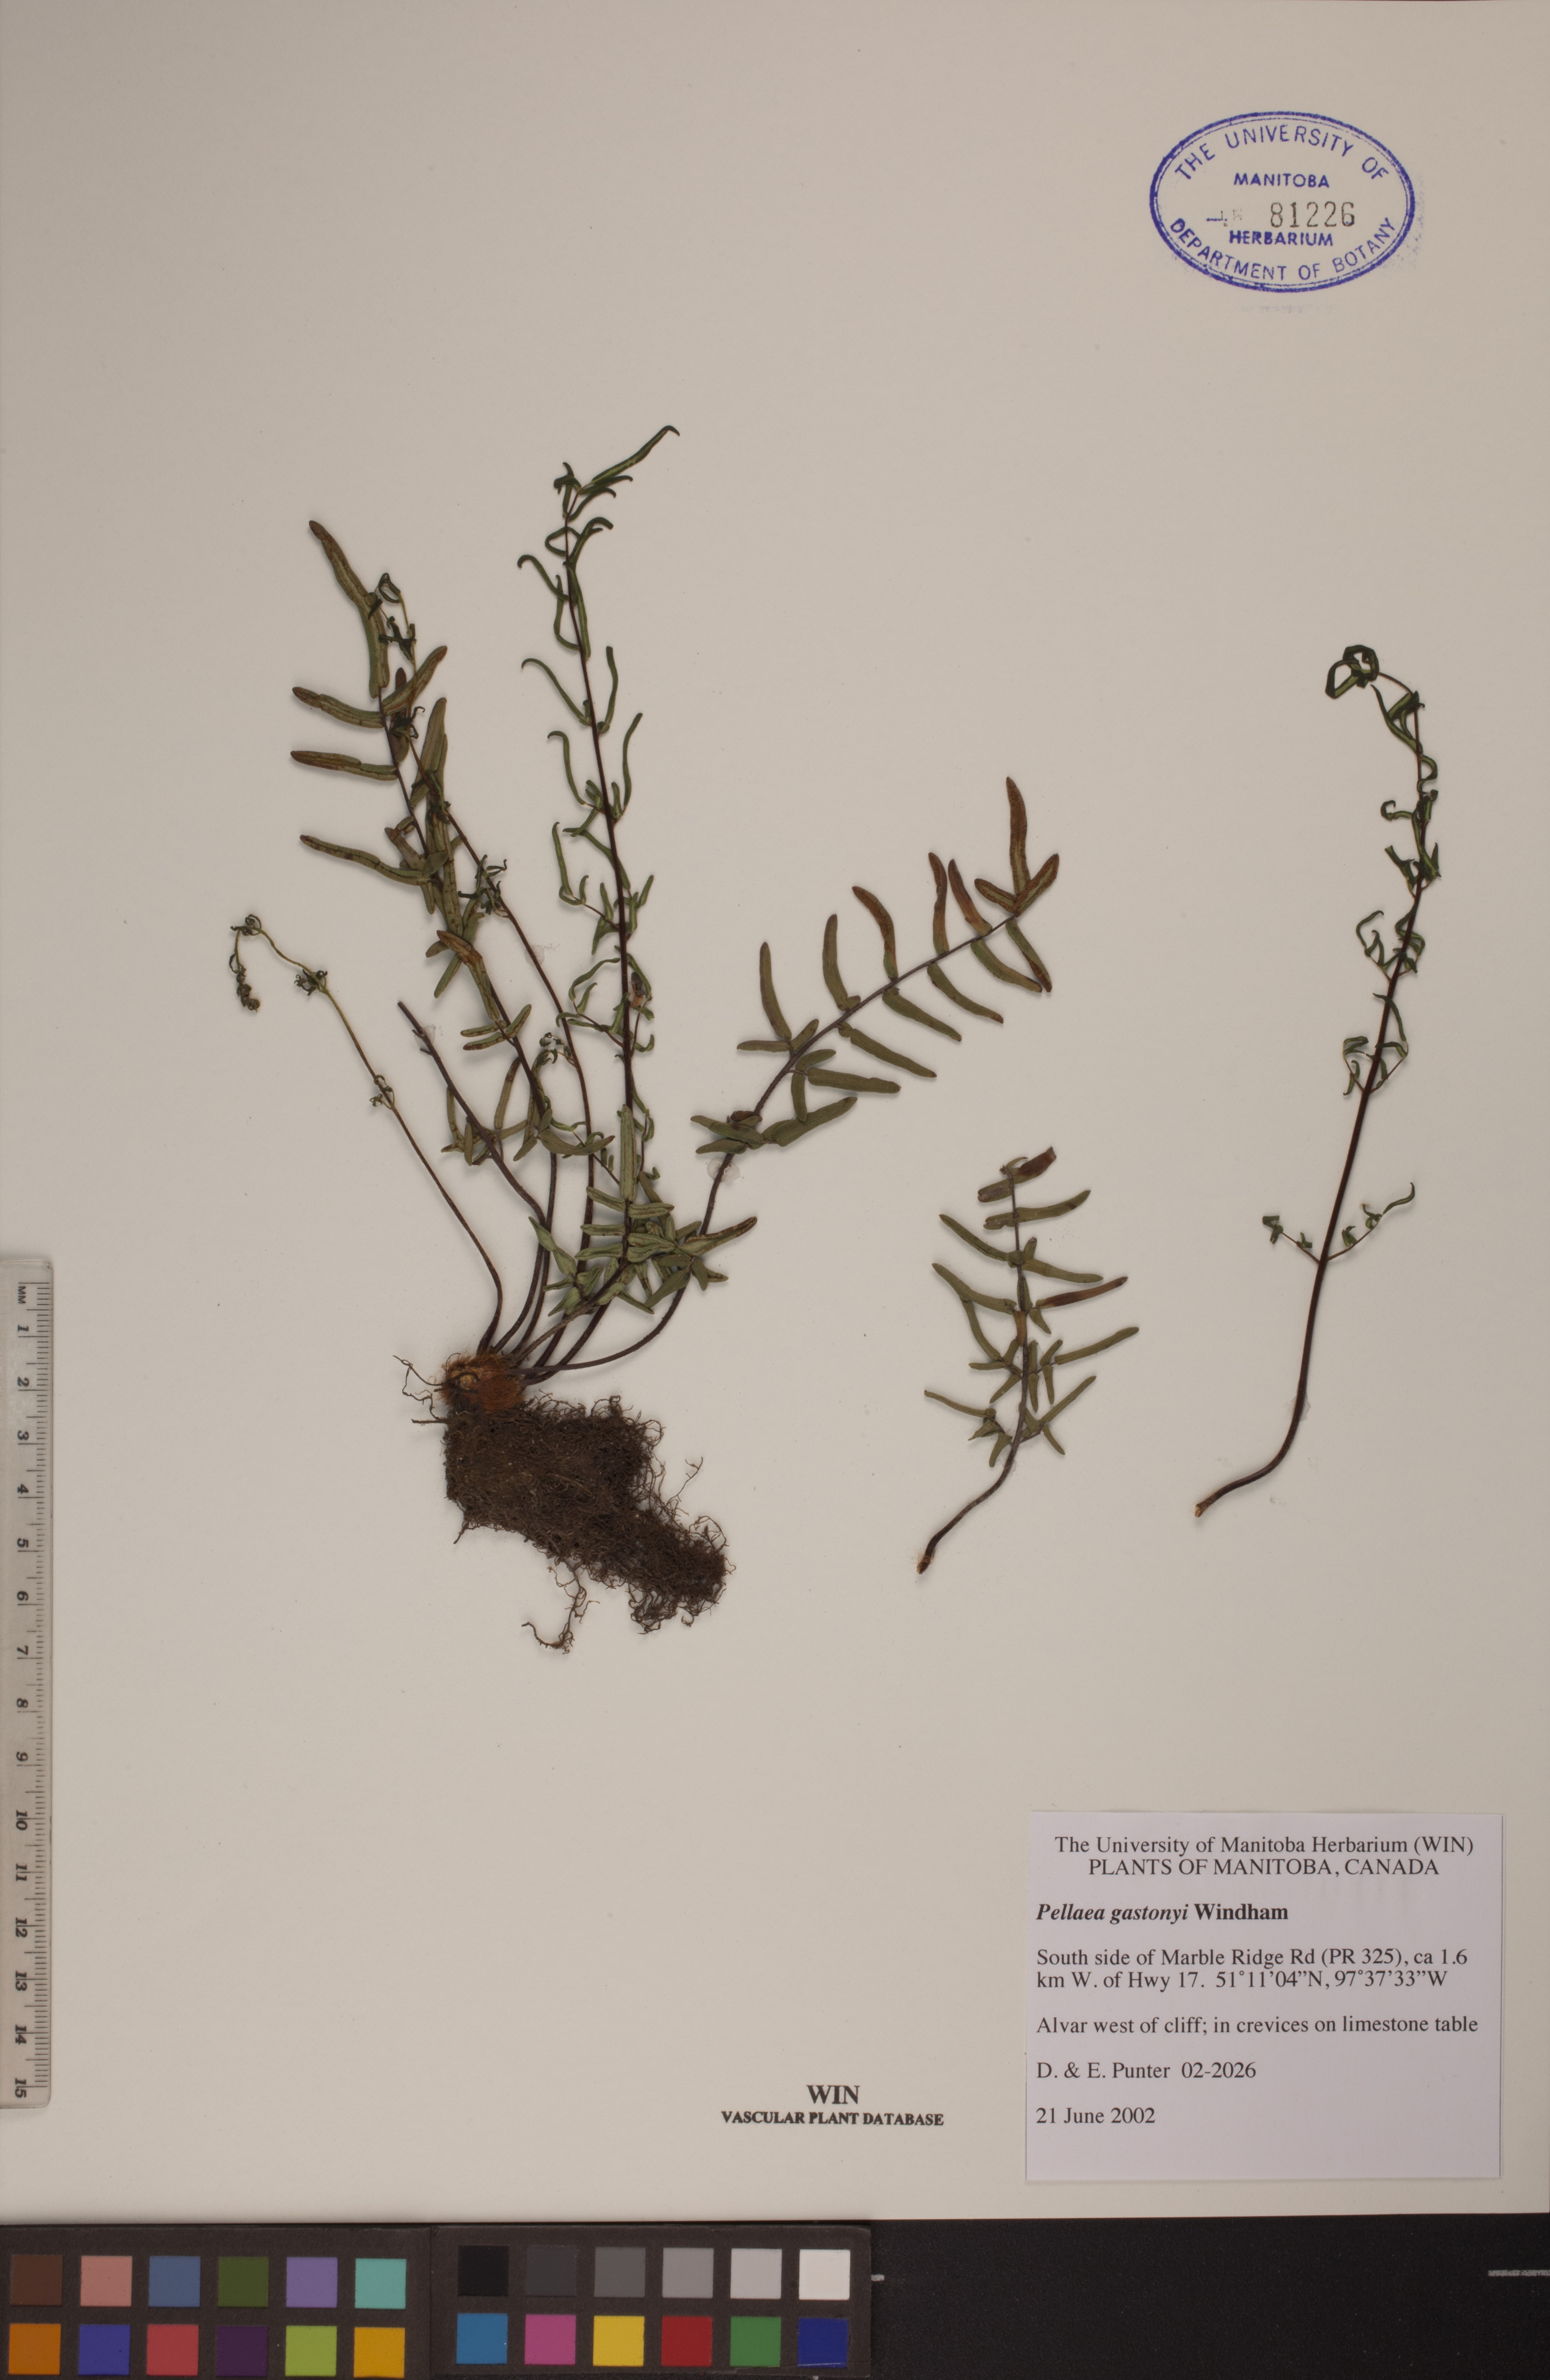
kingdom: Plantae
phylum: Tracheophyta
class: Polypodiopsida
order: Polypodiales
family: Pteridaceae
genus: Pellaea
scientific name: Pellaea gastonyi
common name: Gastony's cliffbrake
